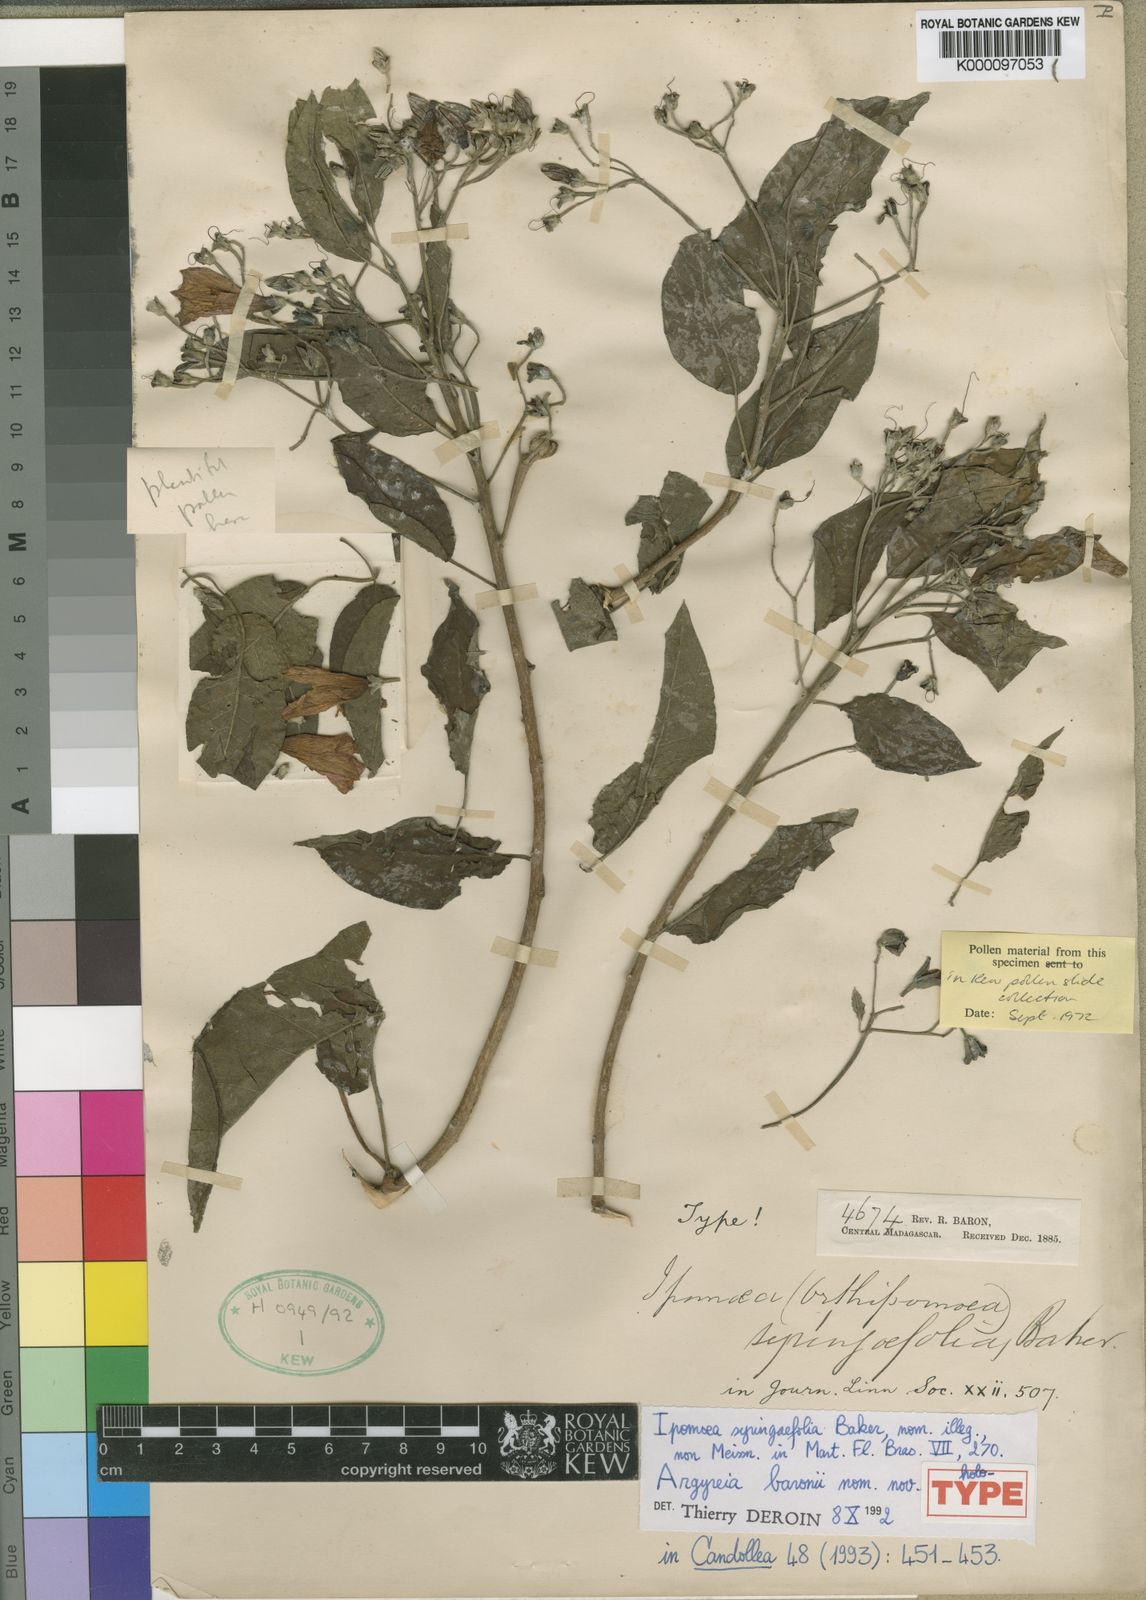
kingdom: Plantae
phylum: Tracheophyta
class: Magnoliopsida
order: Solanales
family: Convolvulaceae
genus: Argyreia
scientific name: Argyreia baronii
